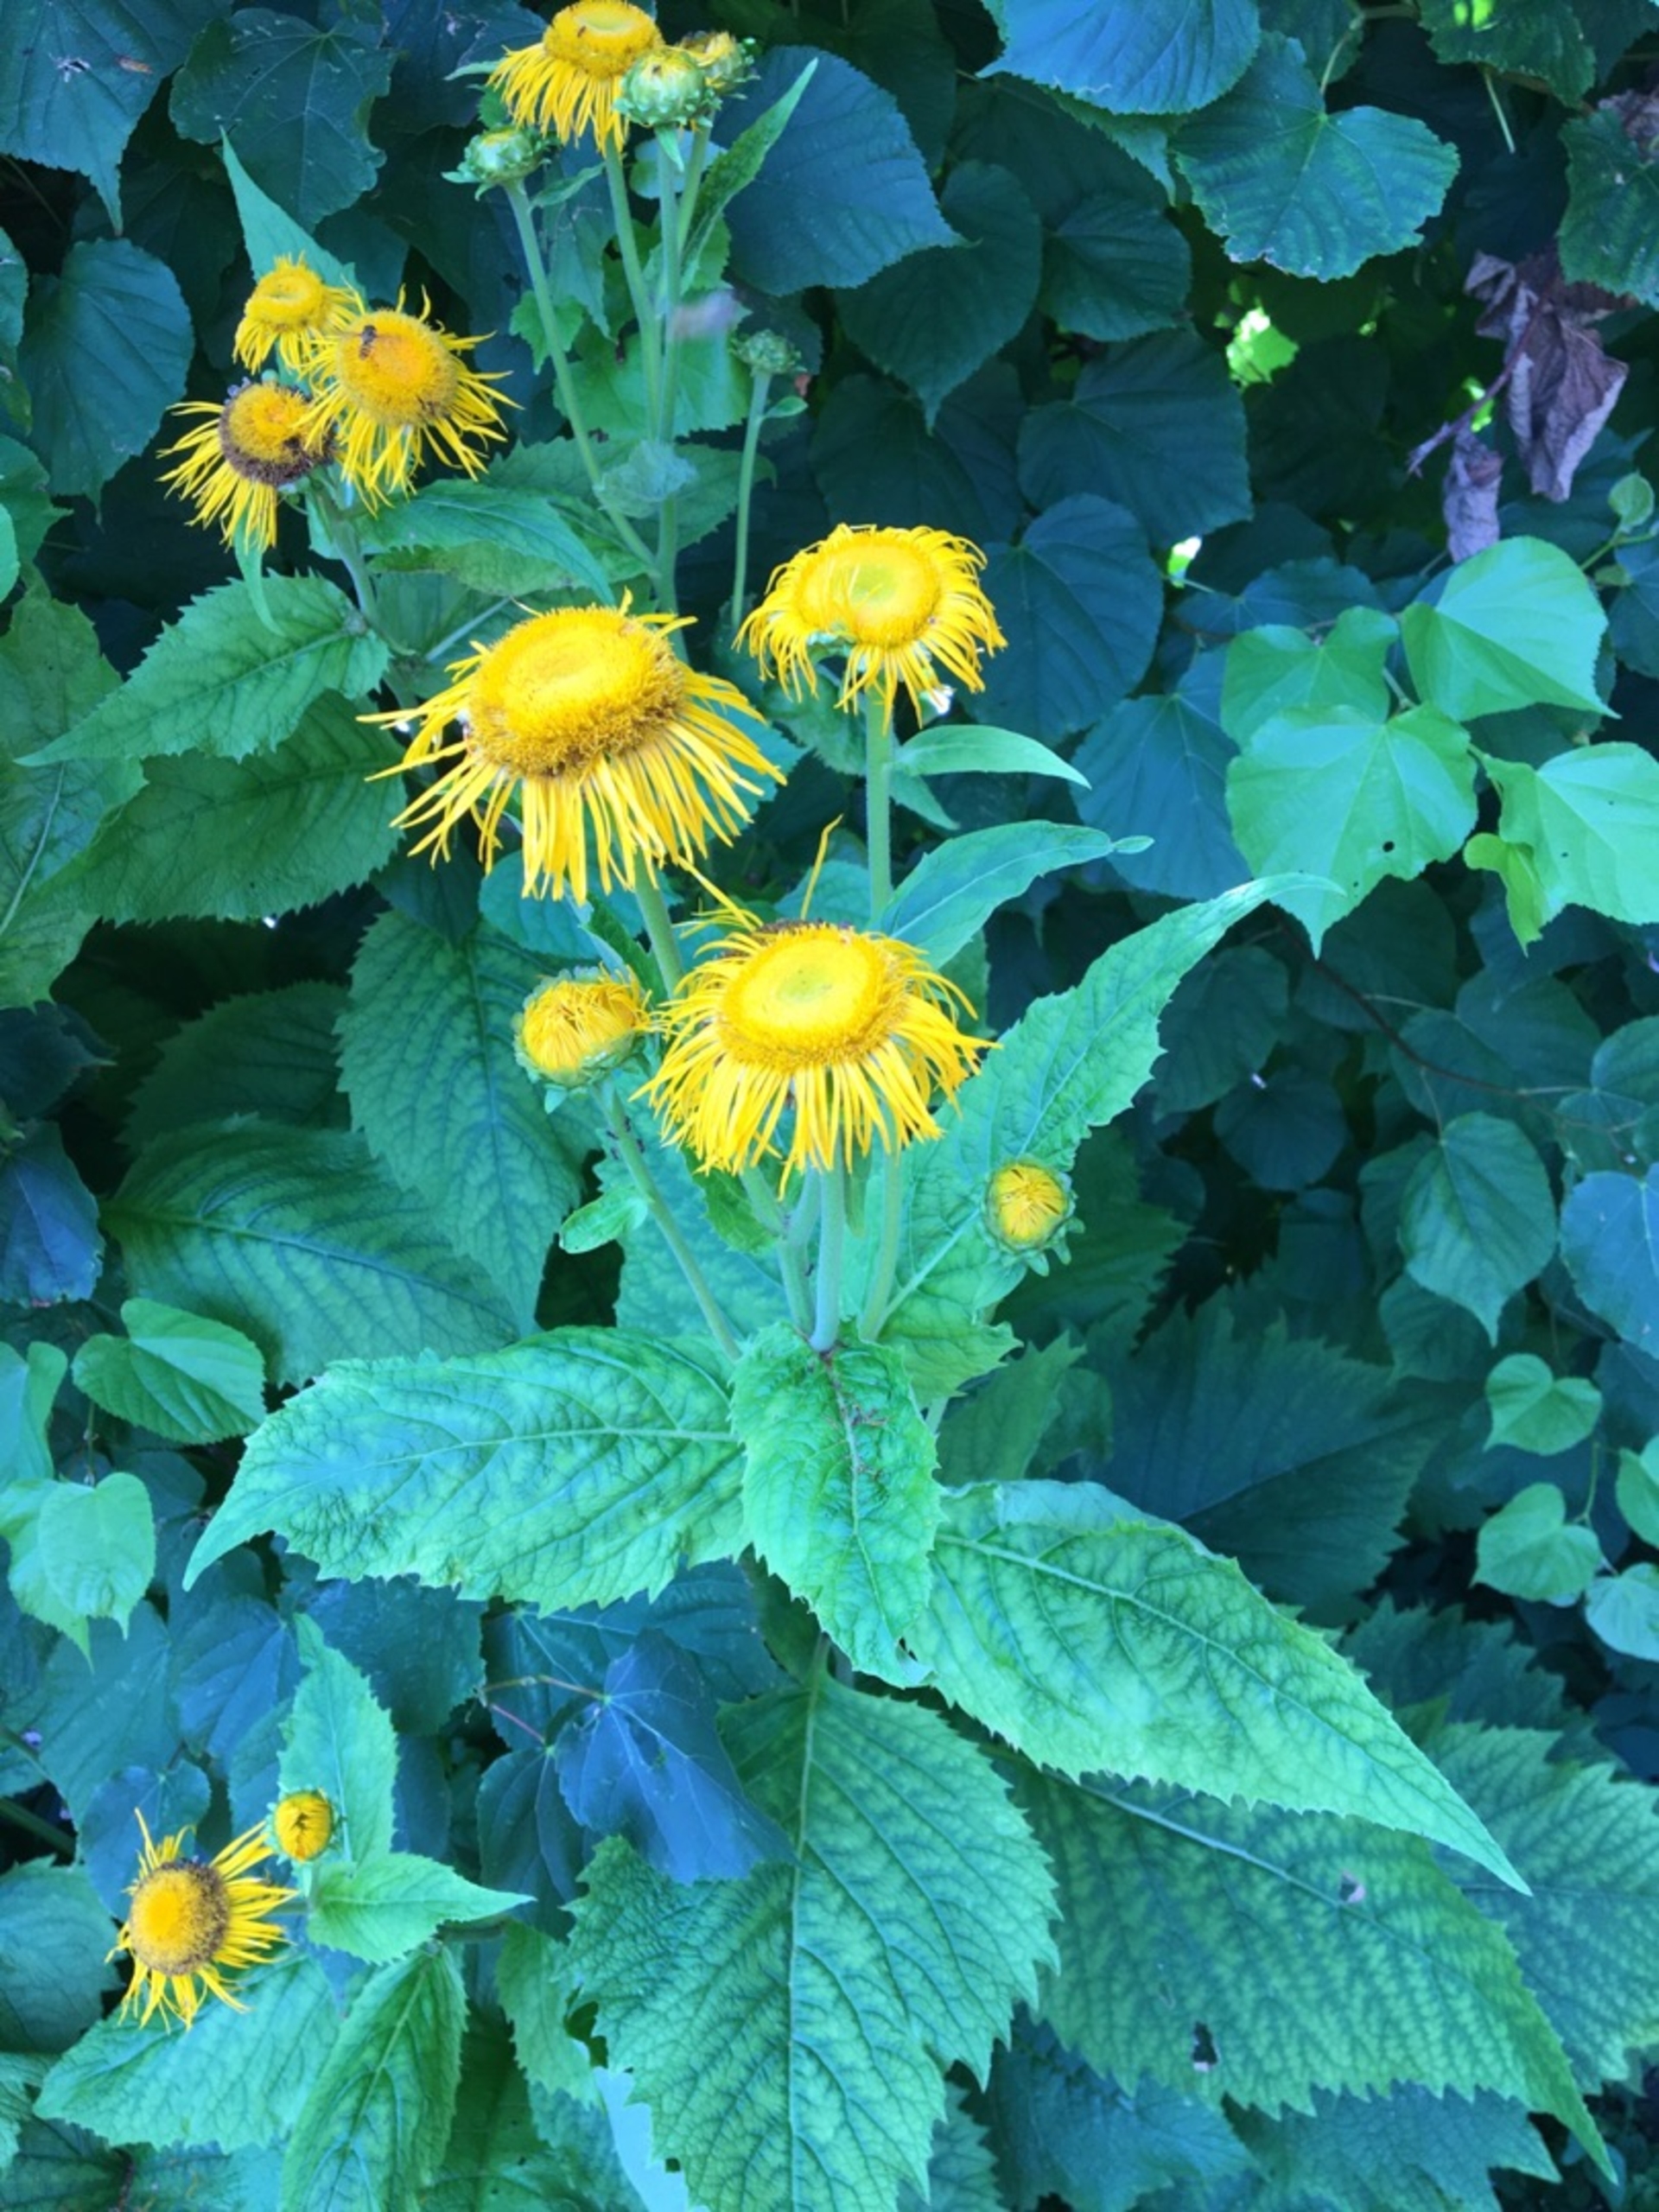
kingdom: Plantae
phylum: Tracheophyta
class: Magnoliopsida
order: Asterales
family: Asteraceae
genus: Telekia
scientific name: Telekia speciosa
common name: Tusindstråle
